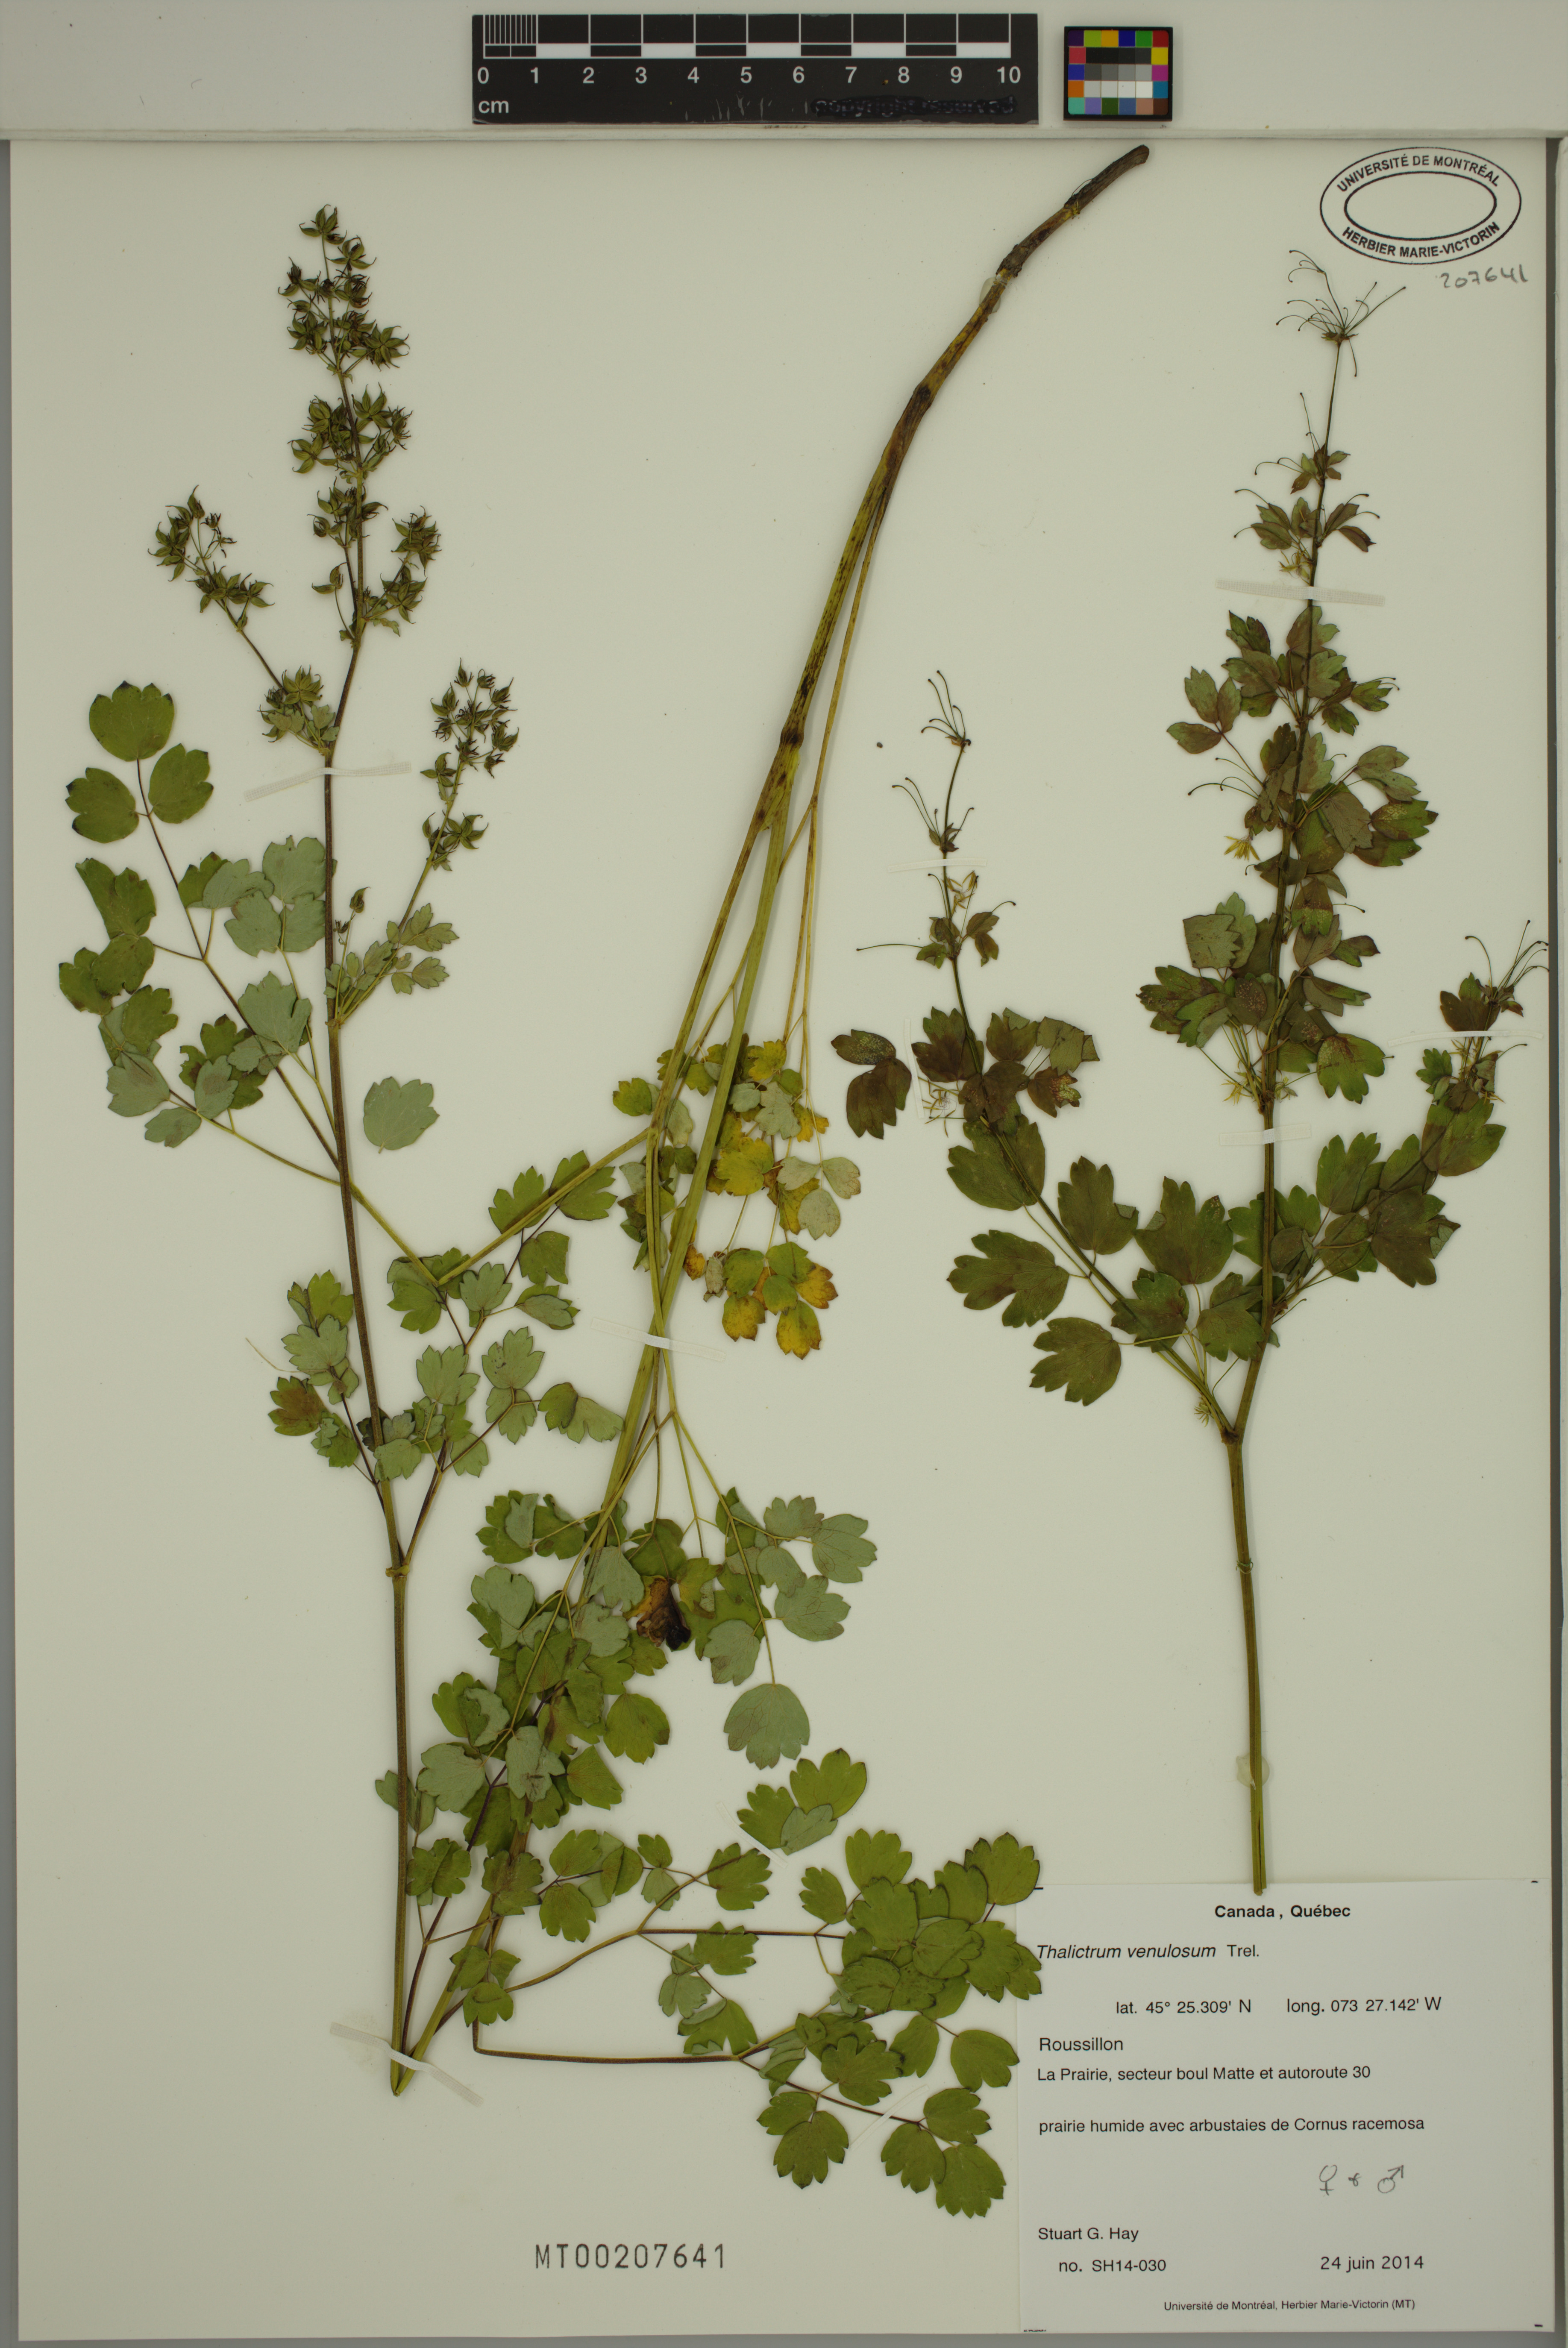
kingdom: Plantae
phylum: Tracheophyta
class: Magnoliopsida
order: Ranunculales
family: Ranunculaceae
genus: Thalictrum
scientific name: Thalictrum venulosum
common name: Early meadow-rue
